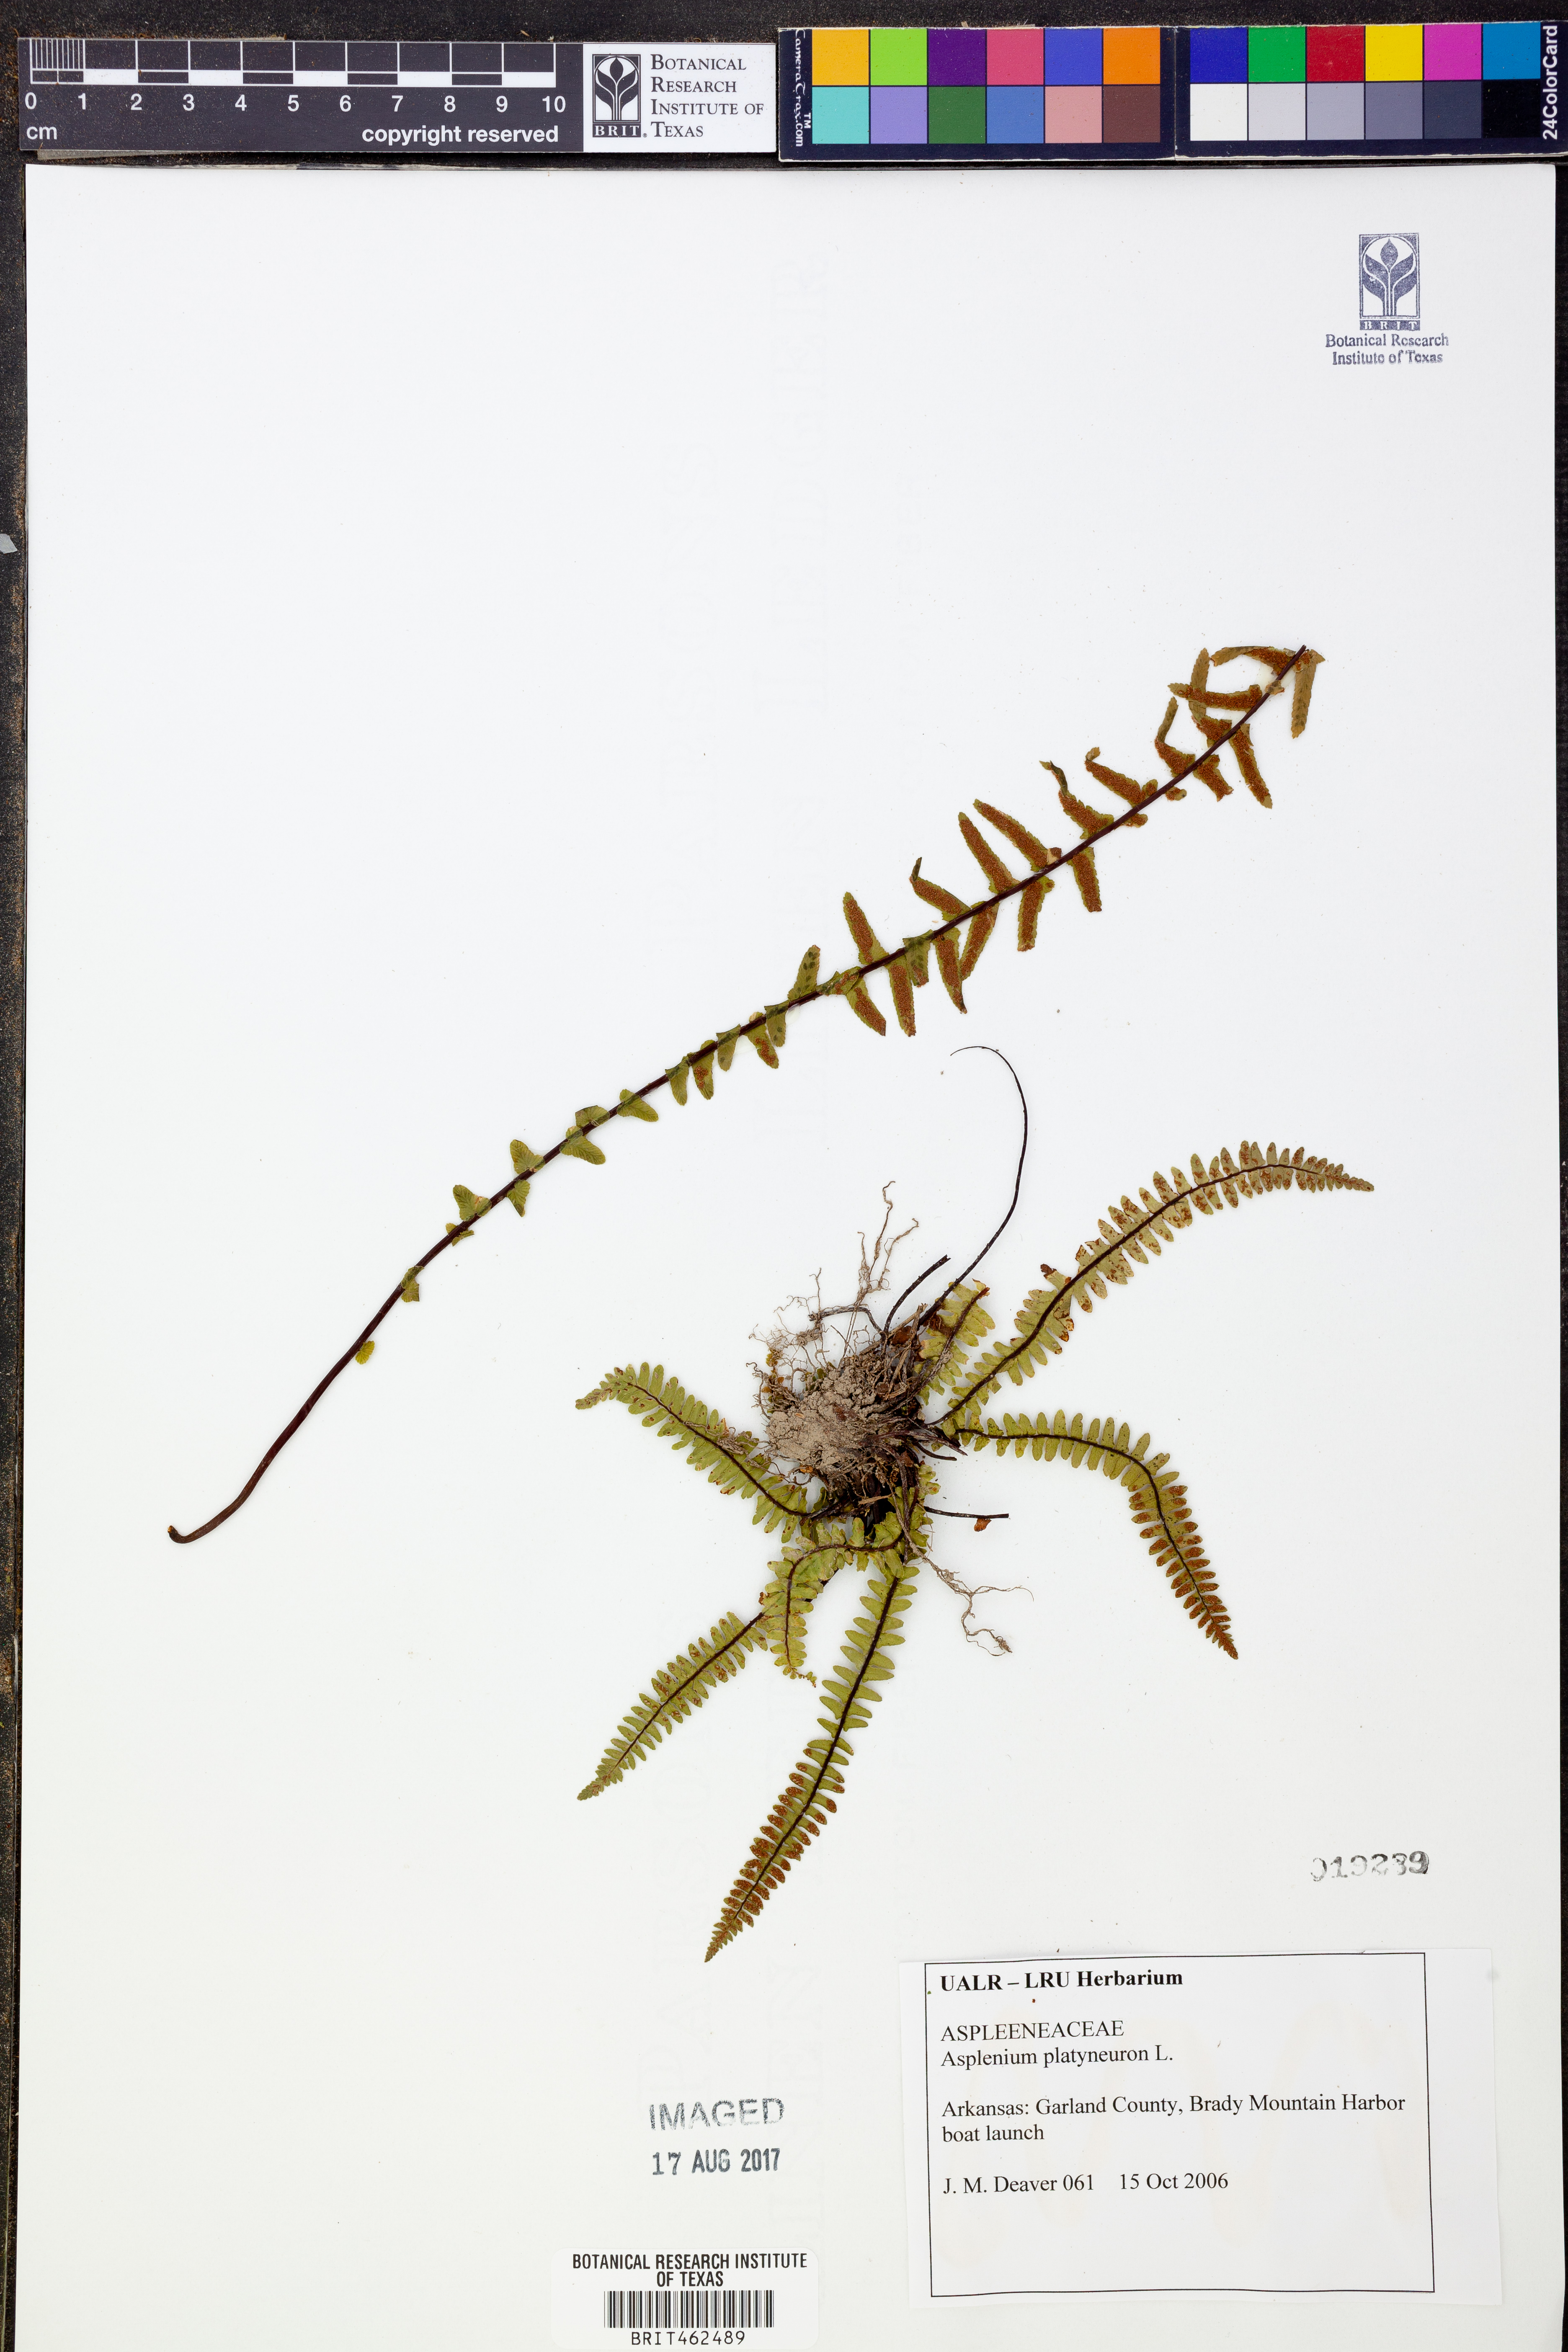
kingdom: Plantae
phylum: Tracheophyta
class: Polypodiopsida
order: Polypodiales
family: Aspleniaceae
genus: Asplenium
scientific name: Asplenium platyneuron
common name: Ebony spleenwort
